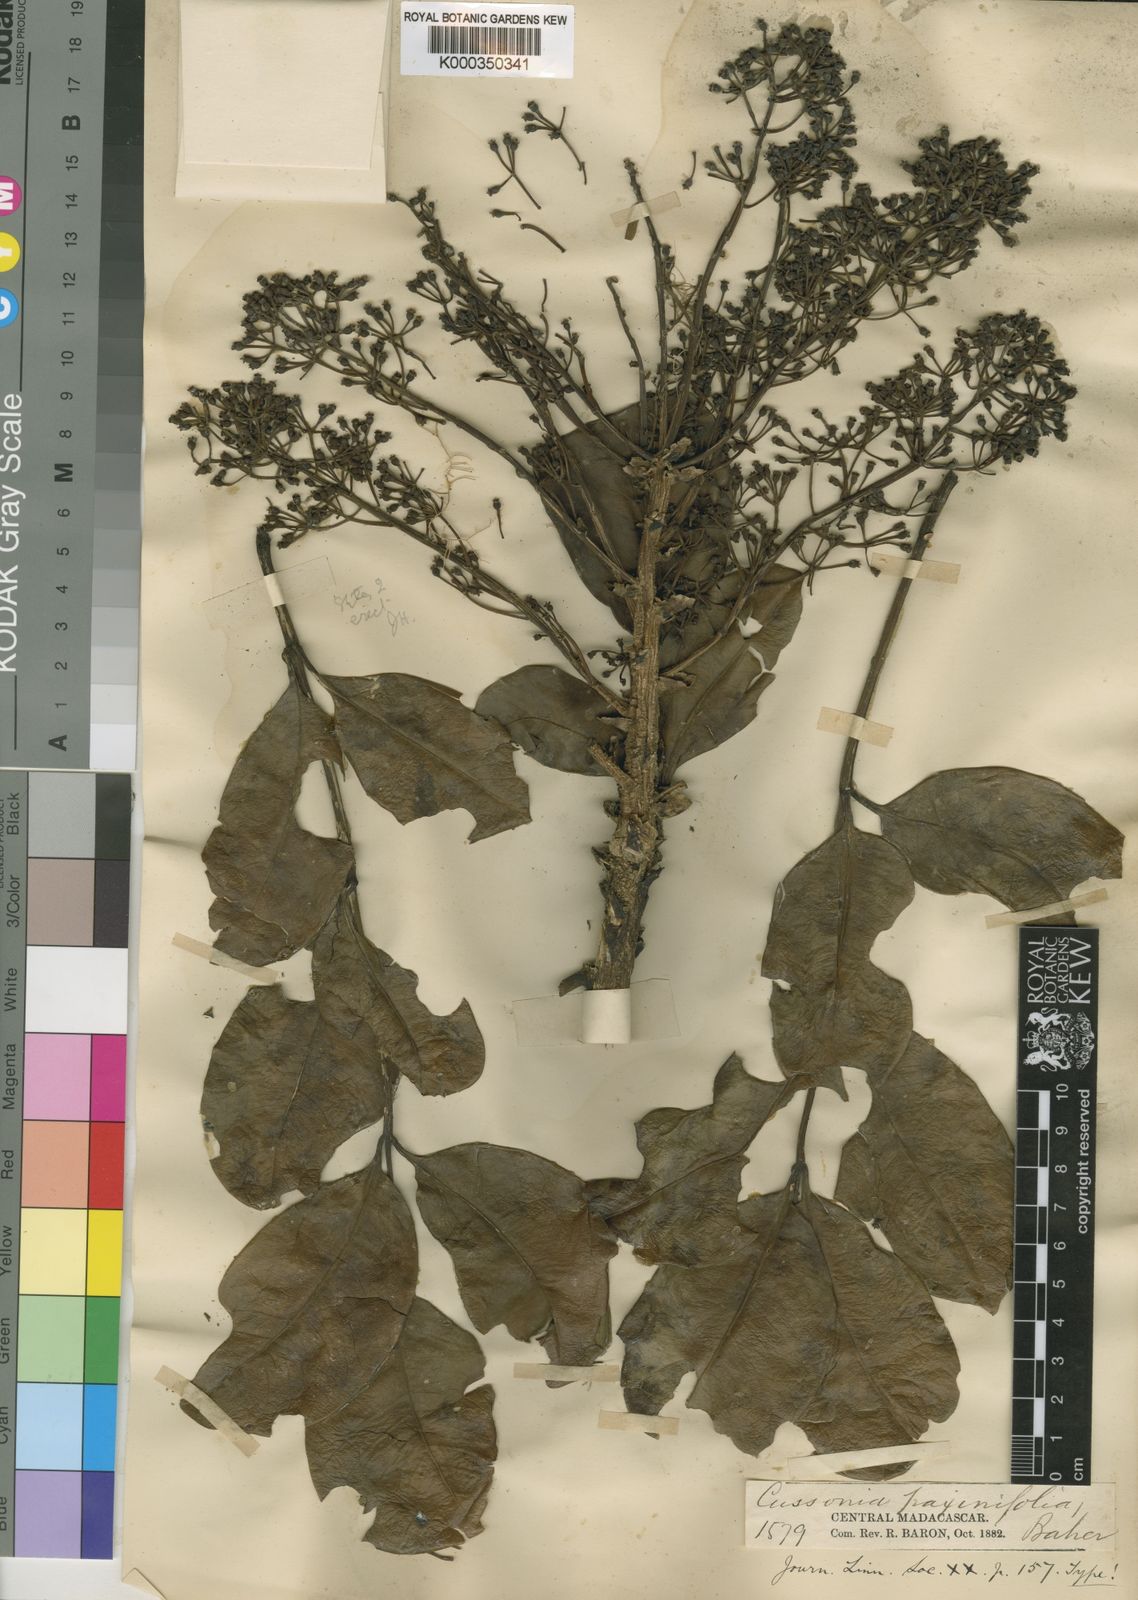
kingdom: Plantae
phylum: Tracheophyta
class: Magnoliopsida
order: Apiales
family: Araliaceae
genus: Polyscias
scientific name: Polyscias fraxinifolia
